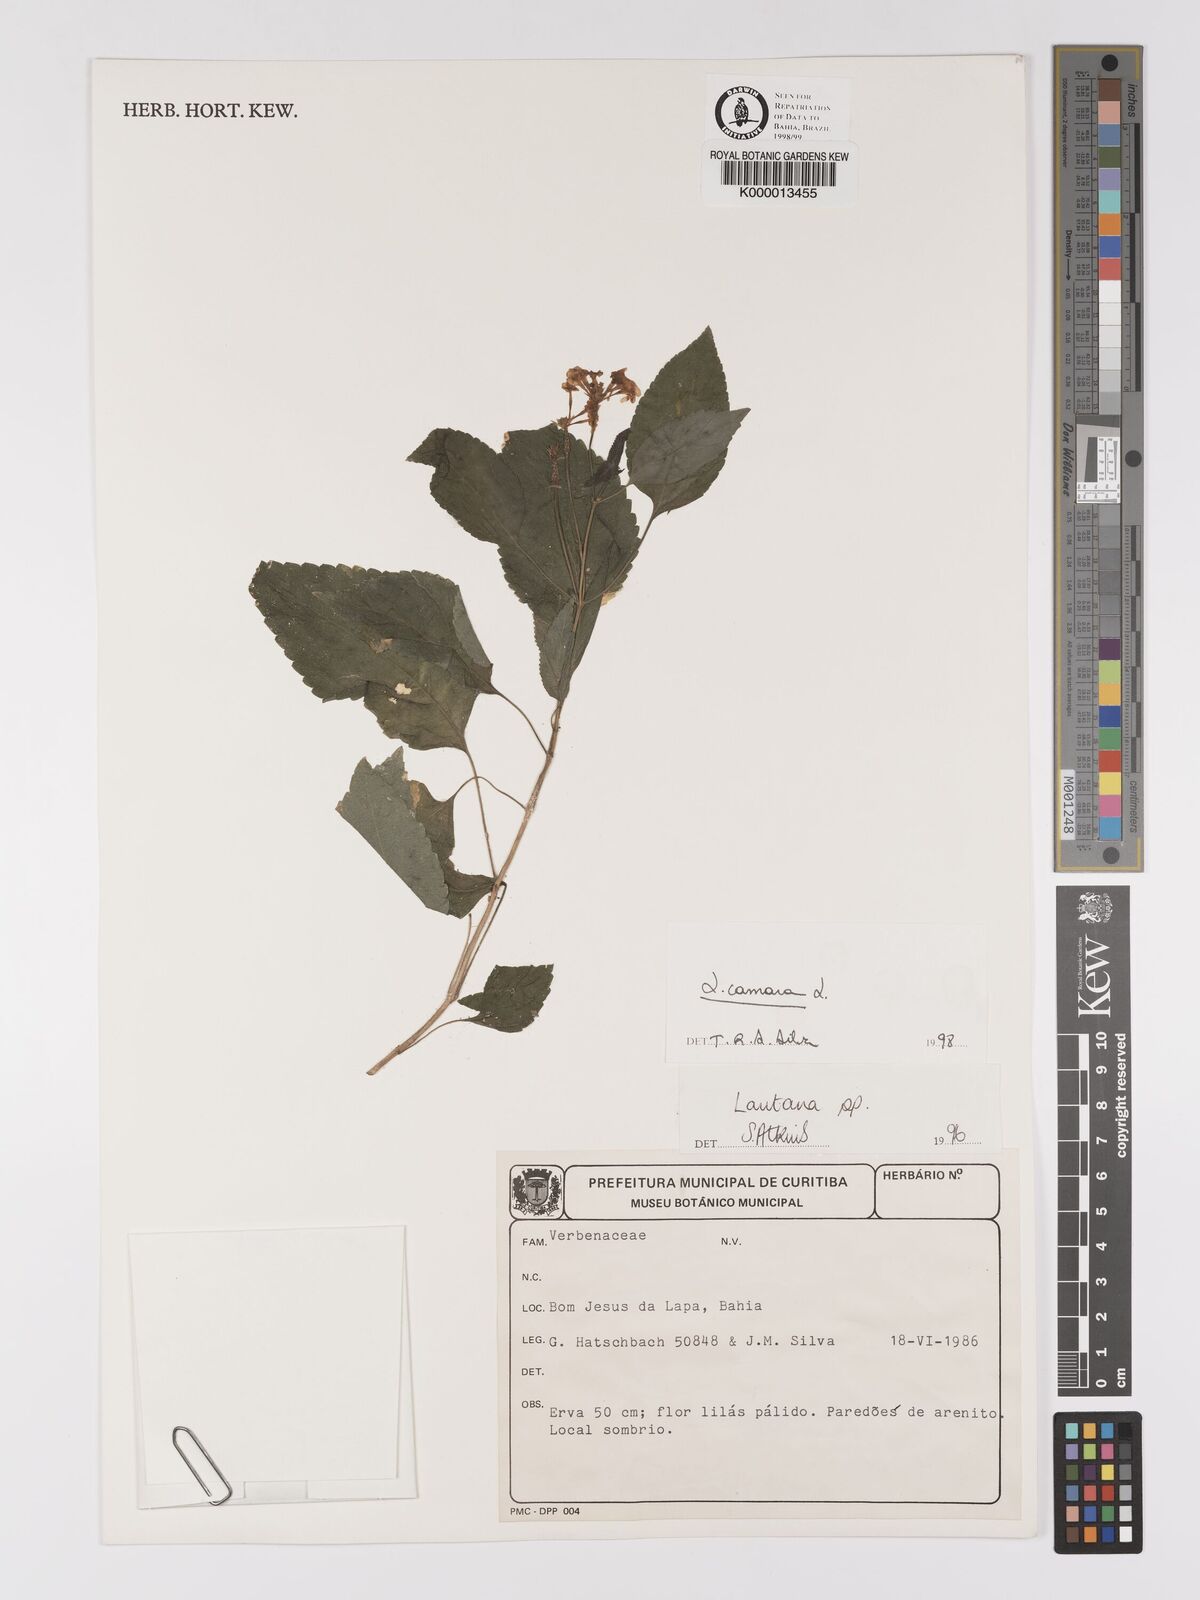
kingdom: Plantae
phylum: Tracheophyta
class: Magnoliopsida
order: Lamiales
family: Verbenaceae
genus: Lantana
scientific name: Lantana camara
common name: Lantana
